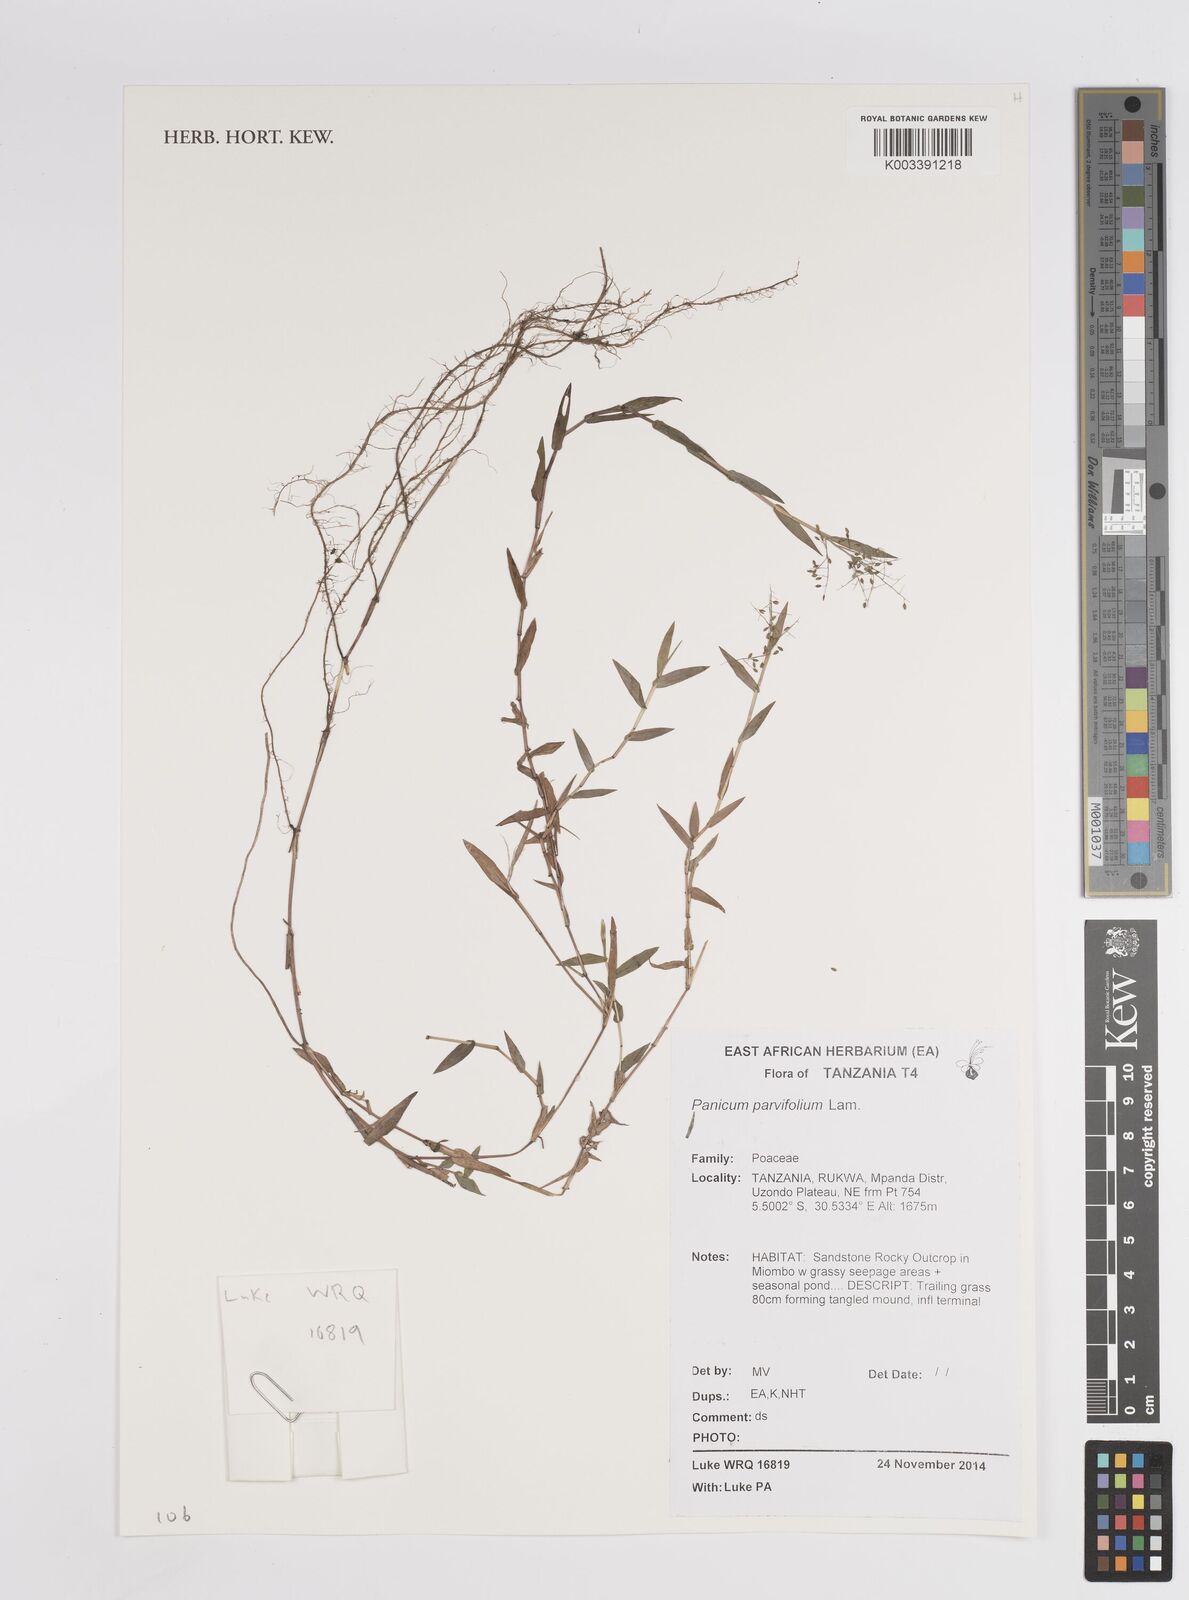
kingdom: Plantae
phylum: Tracheophyta
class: Liliopsida
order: Poales
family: Poaceae
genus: Trichanthecium
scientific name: Trichanthecium parvifolium
